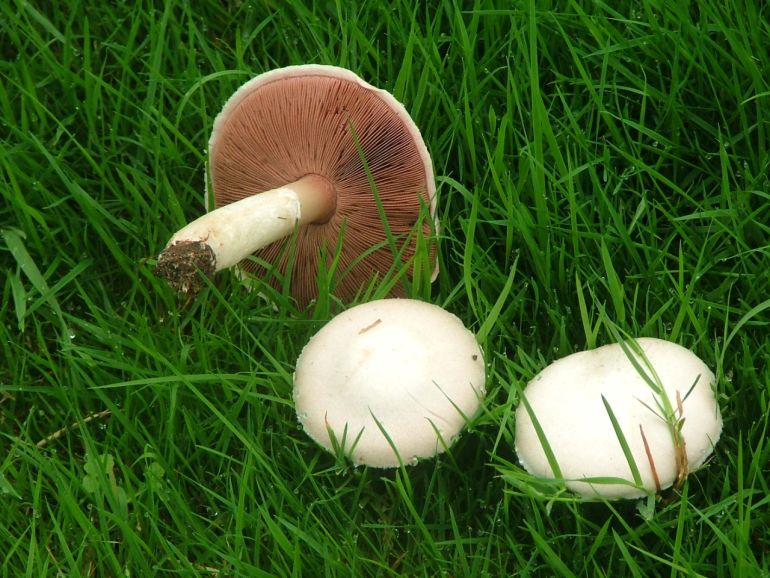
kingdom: Fungi
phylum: Basidiomycota
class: Agaricomycetes
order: Agaricales
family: Agaricaceae
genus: Agaricus
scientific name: Agaricus campestris
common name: mark-champignon
